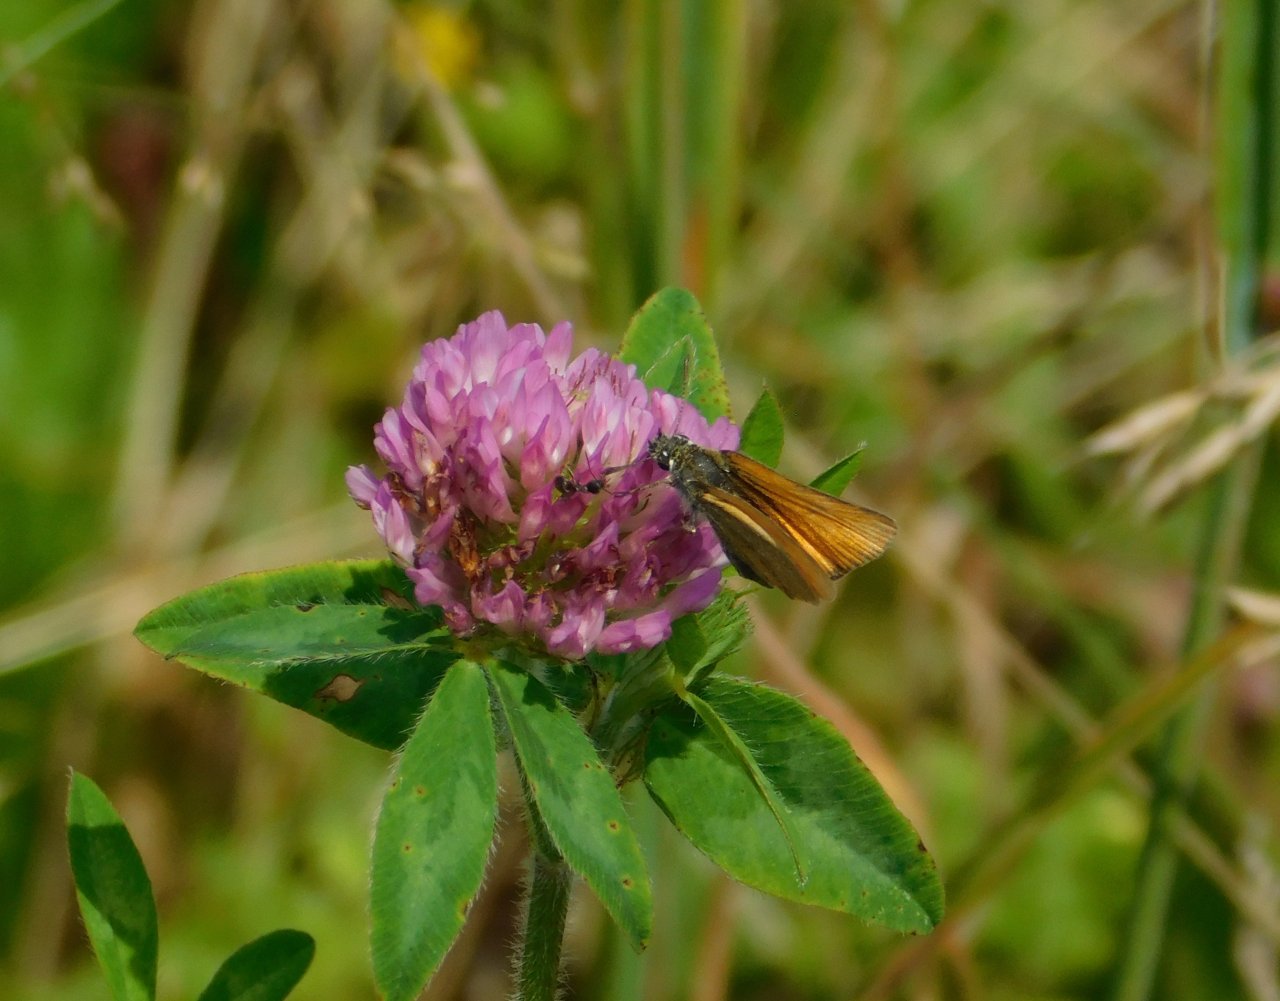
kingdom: Animalia
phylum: Arthropoda
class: Insecta
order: Lepidoptera
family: Hesperiidae
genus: Thymelicus
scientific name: Thymelicus lineola
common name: European Skipper
